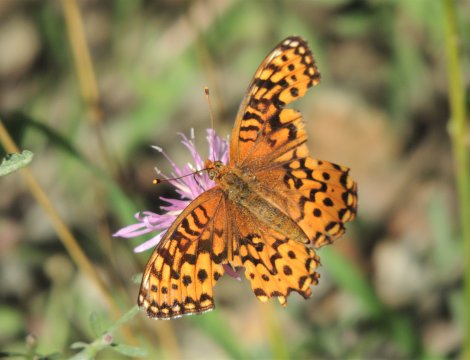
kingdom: Animalia
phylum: Arthropoda
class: Insecta
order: Lepidoptera
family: Nymphalidae
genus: Speyeria
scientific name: Speyeria hydaspe
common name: Hydaspe Fritillary
